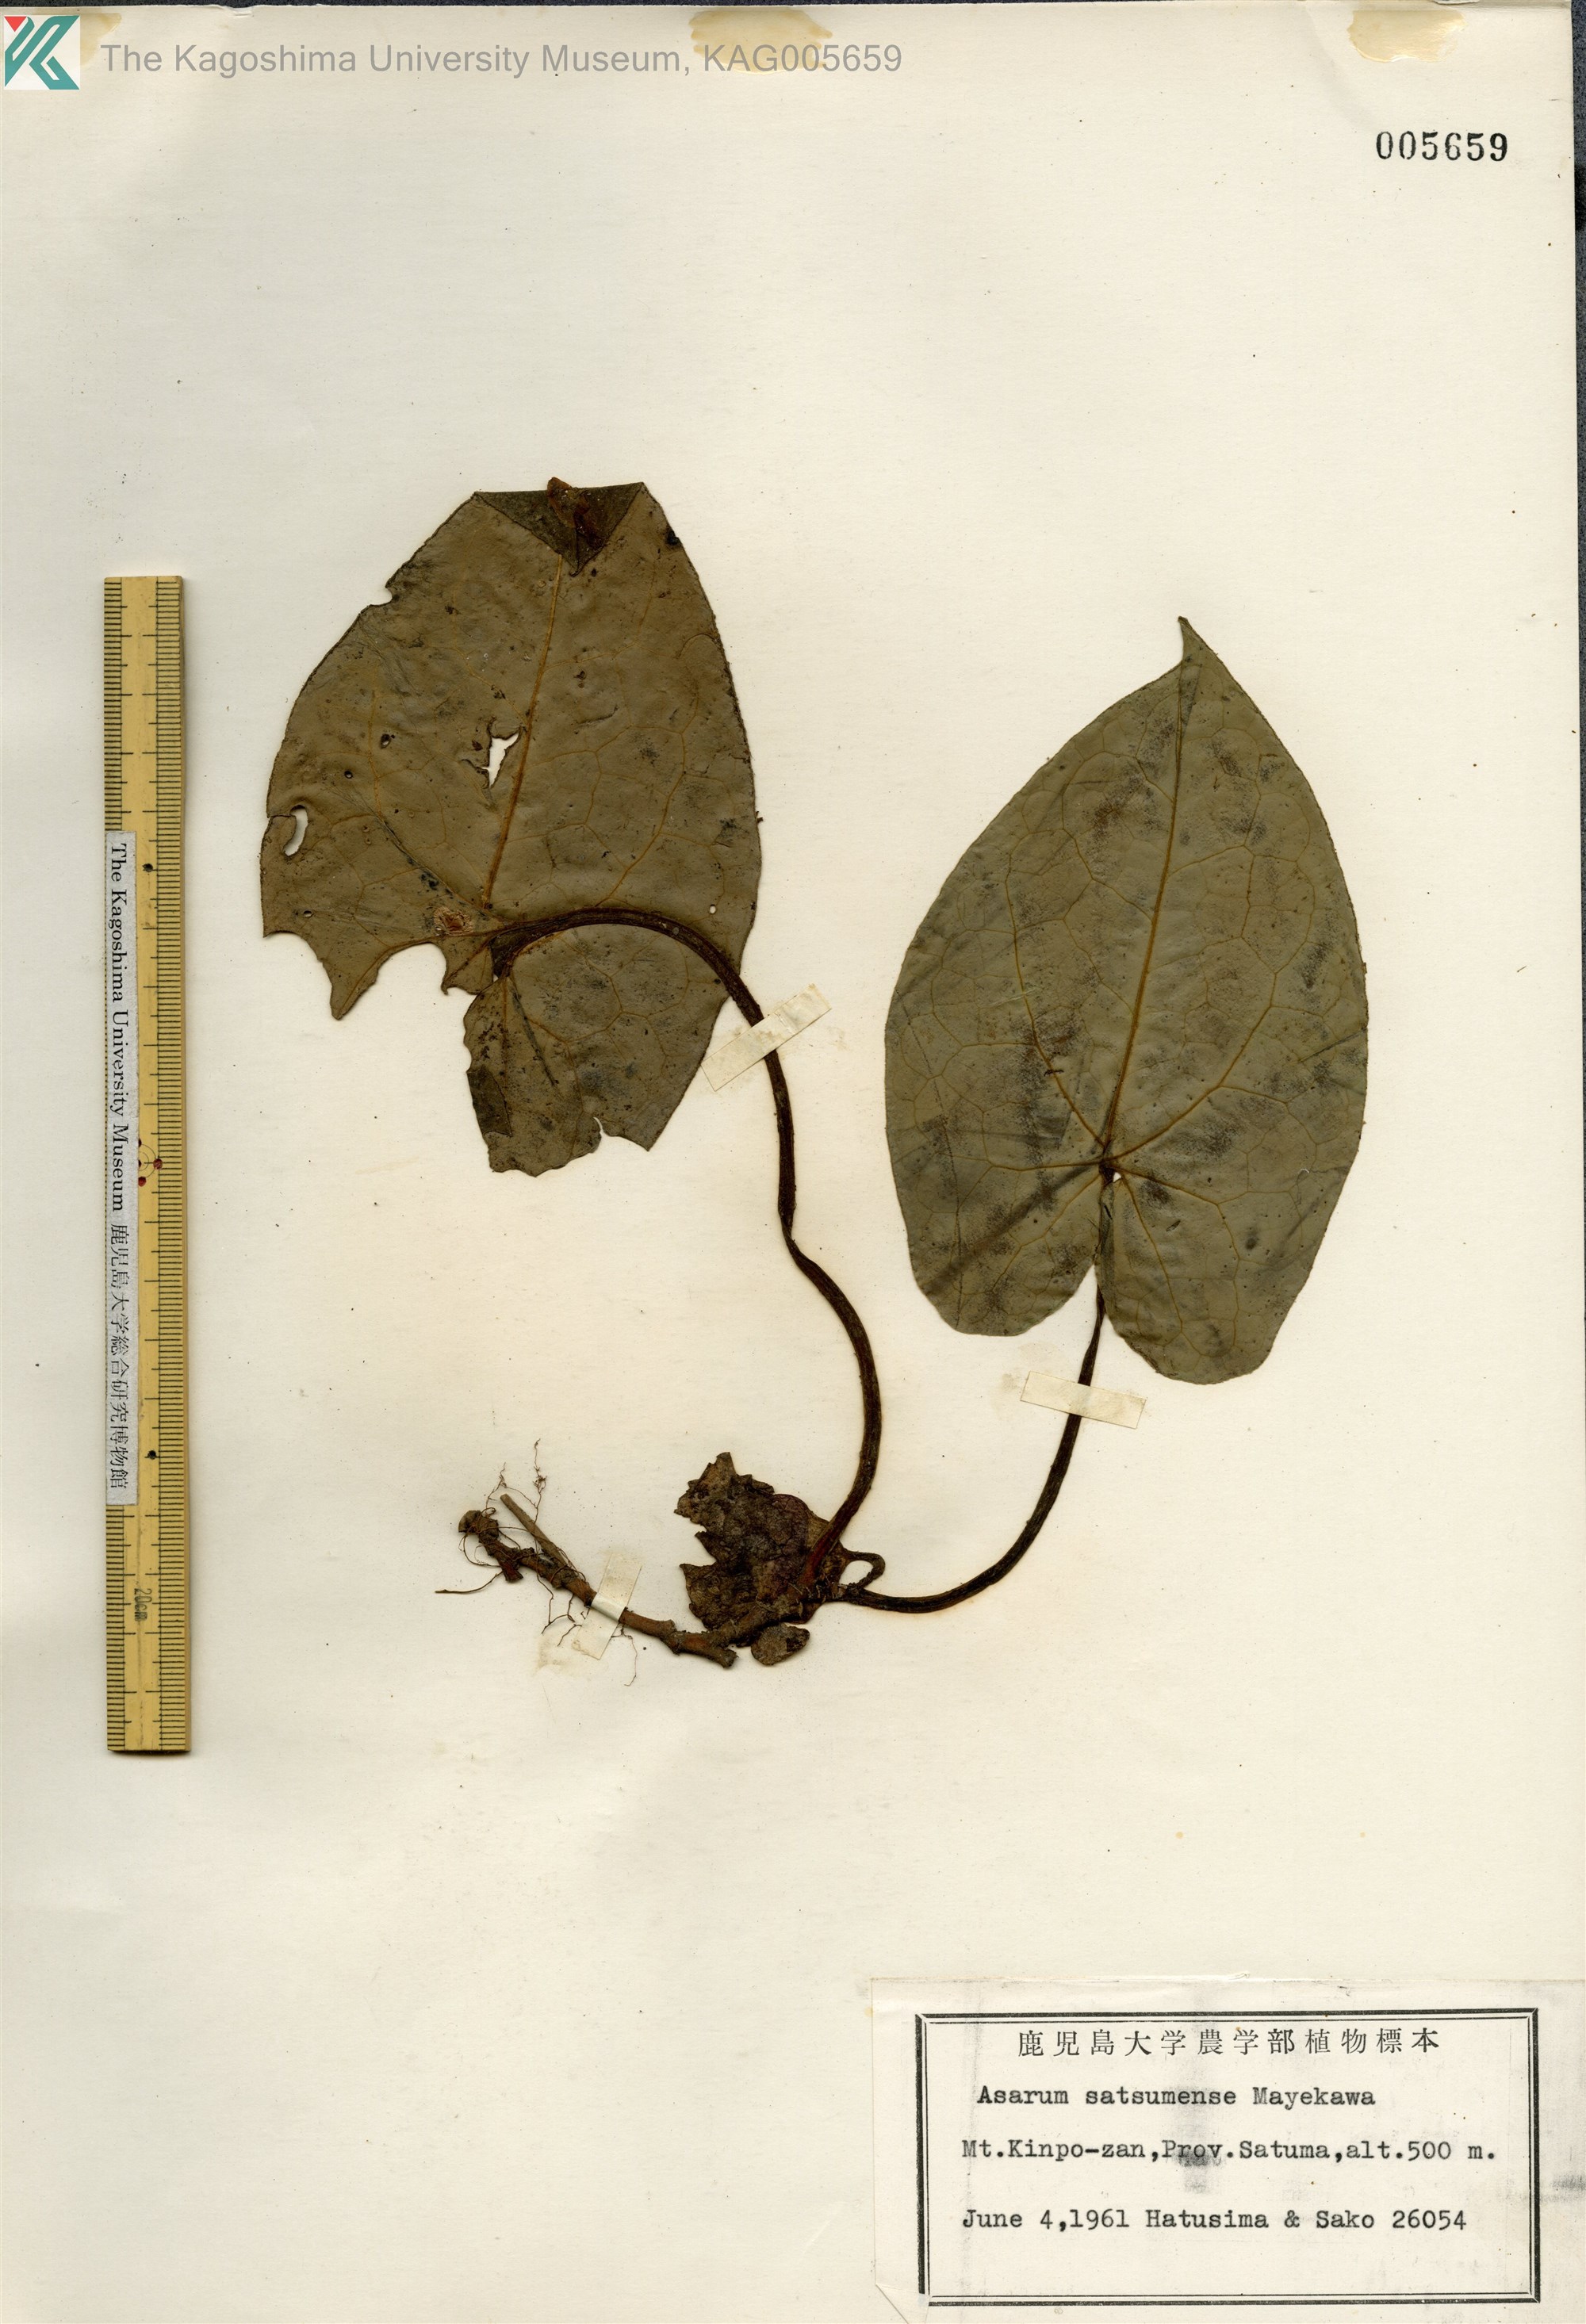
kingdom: Plantae
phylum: Tracheophyta
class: Magnoliopsida
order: Piperales
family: Aristolochiaceae
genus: Asarum
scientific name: Asarum satsumense
